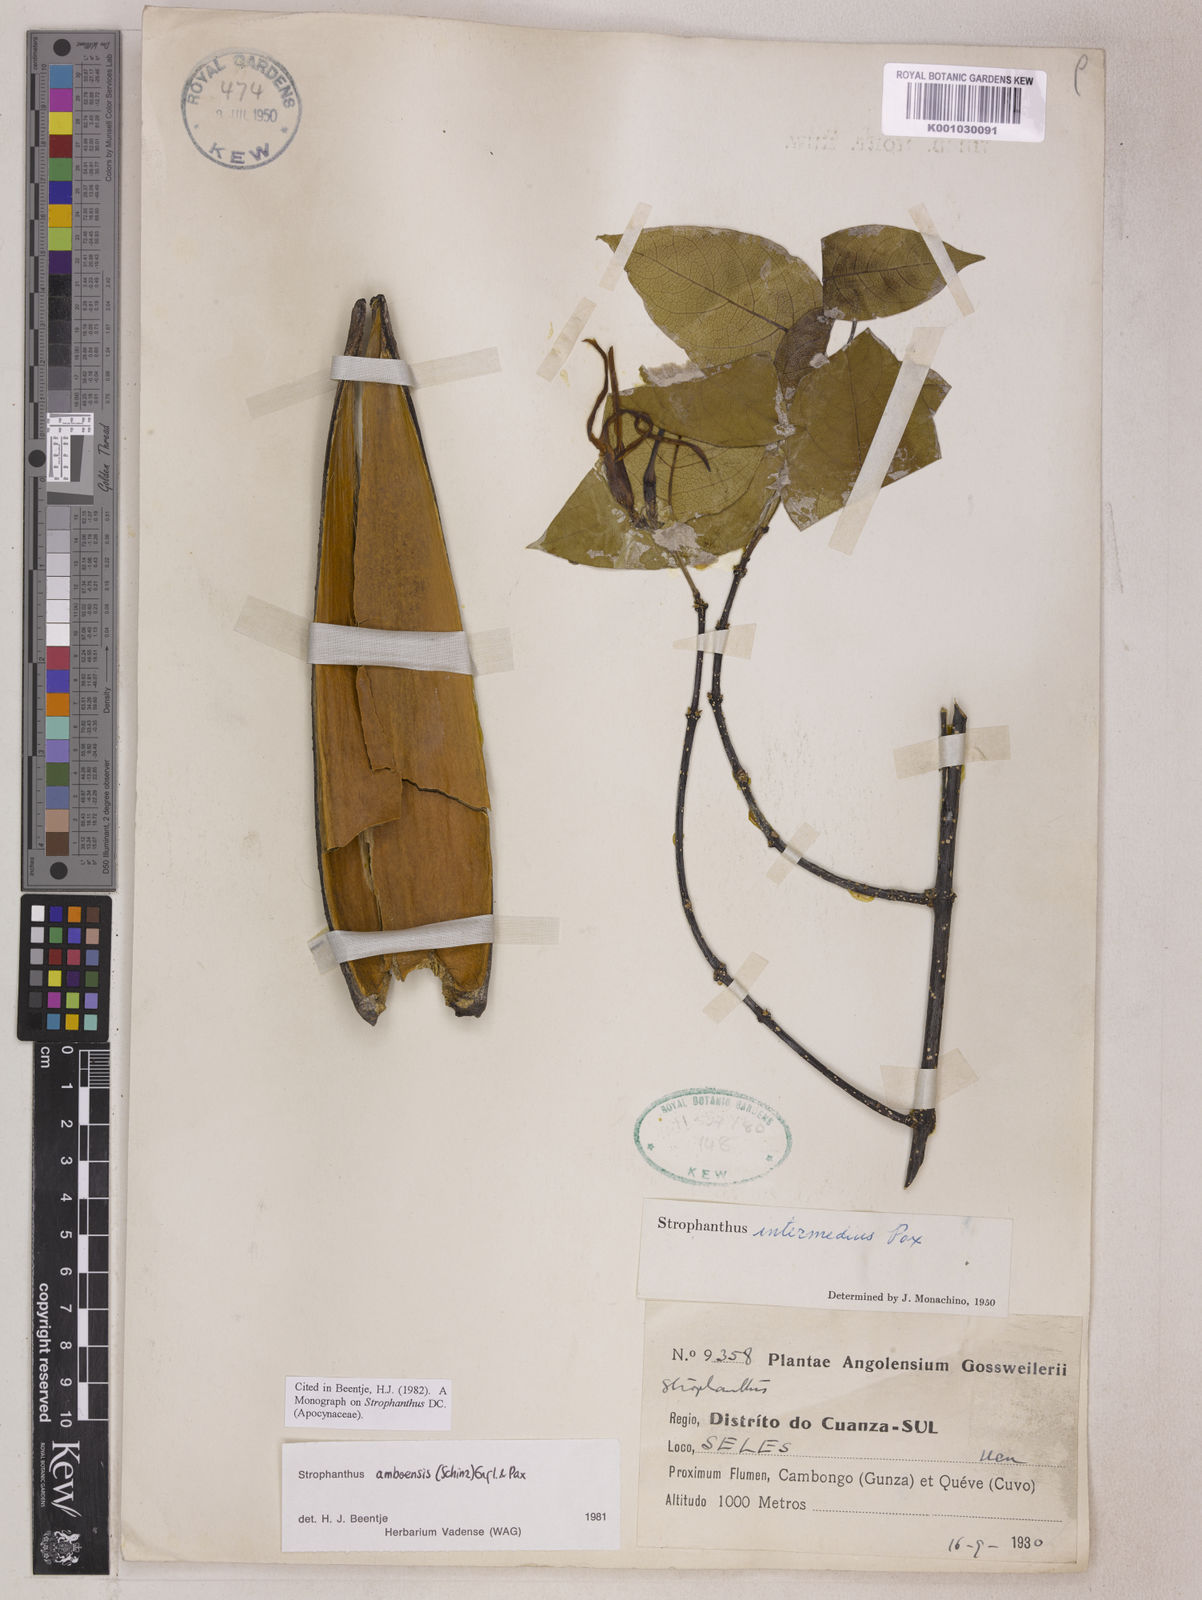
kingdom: Plantae
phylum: Tracheophyta
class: Magnoliopsida
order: Gentianales
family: Apocynaceae
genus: Strophanthus
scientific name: Strophanthus amboensis
